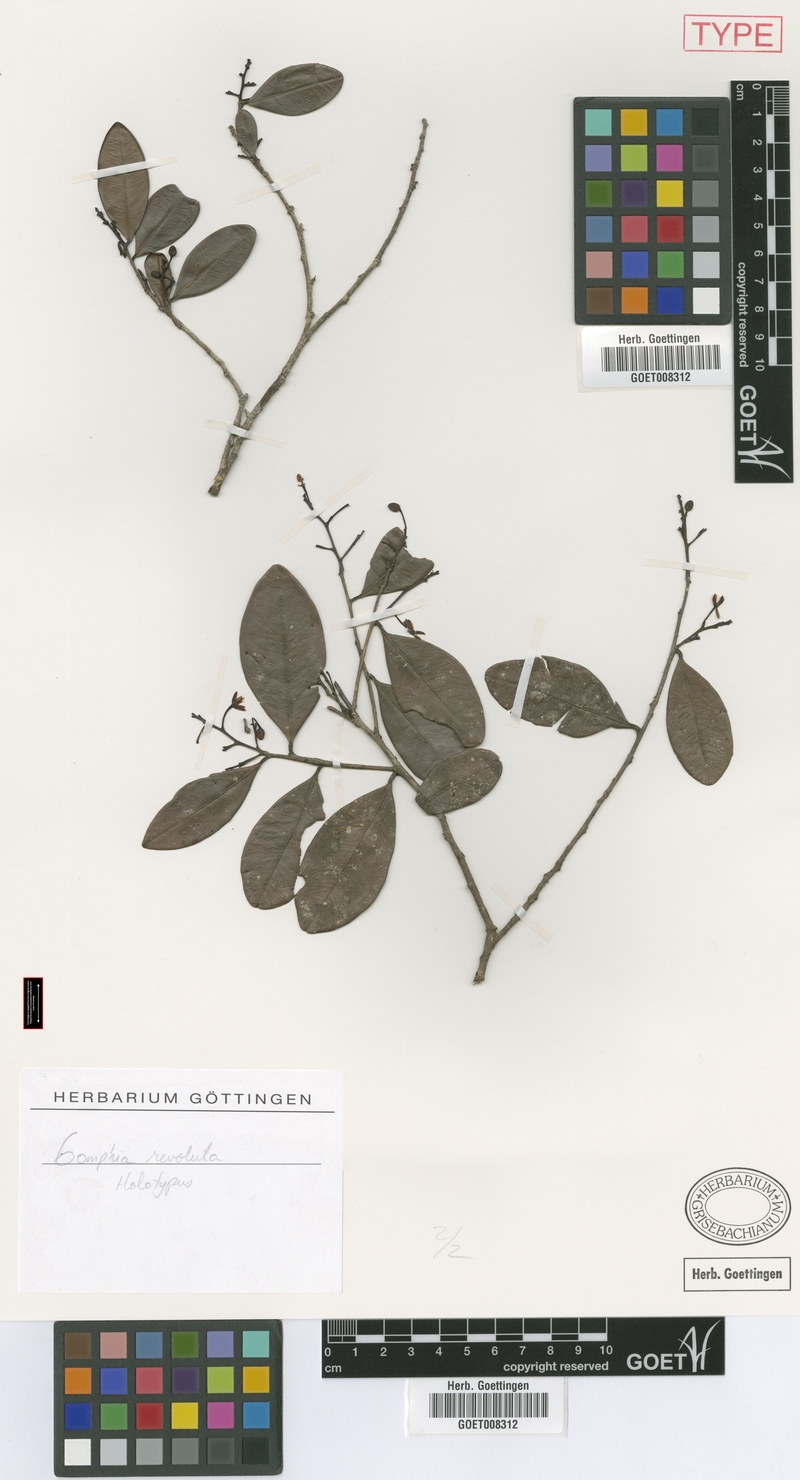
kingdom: Plantae
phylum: Tracheophyta
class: Magnoliopsida
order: Malpighiales
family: Ochnaceae
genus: Ouratea
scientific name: Ouratea revoluta
